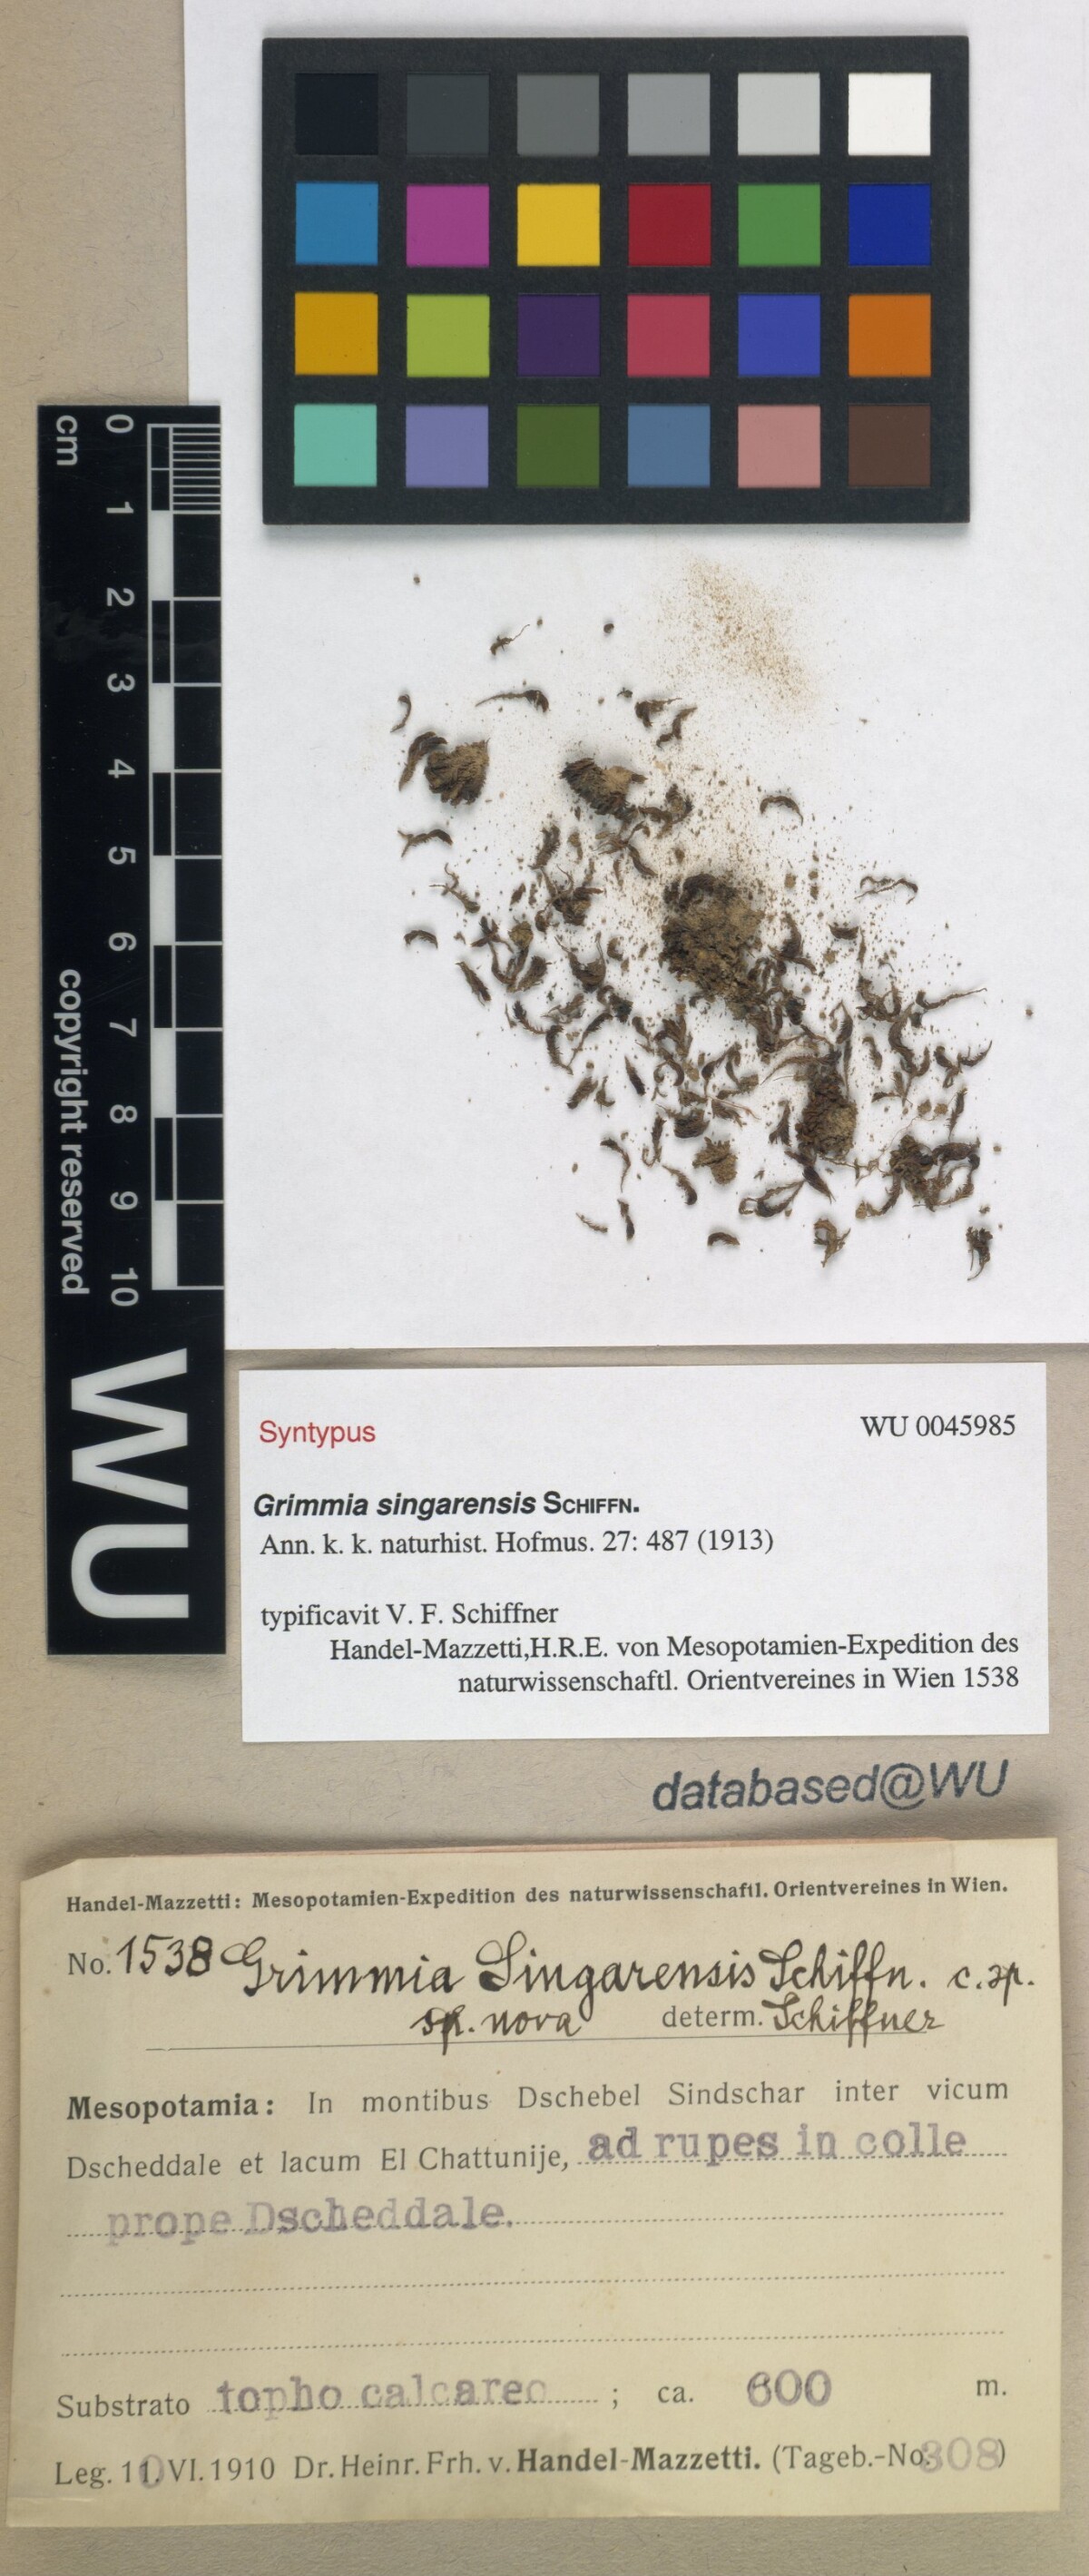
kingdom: Plantae
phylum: Bryophyta
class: Bryopsida
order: Grimmiales
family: Grimmiaceae
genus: Schistidium
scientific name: Schistidium helveticum
